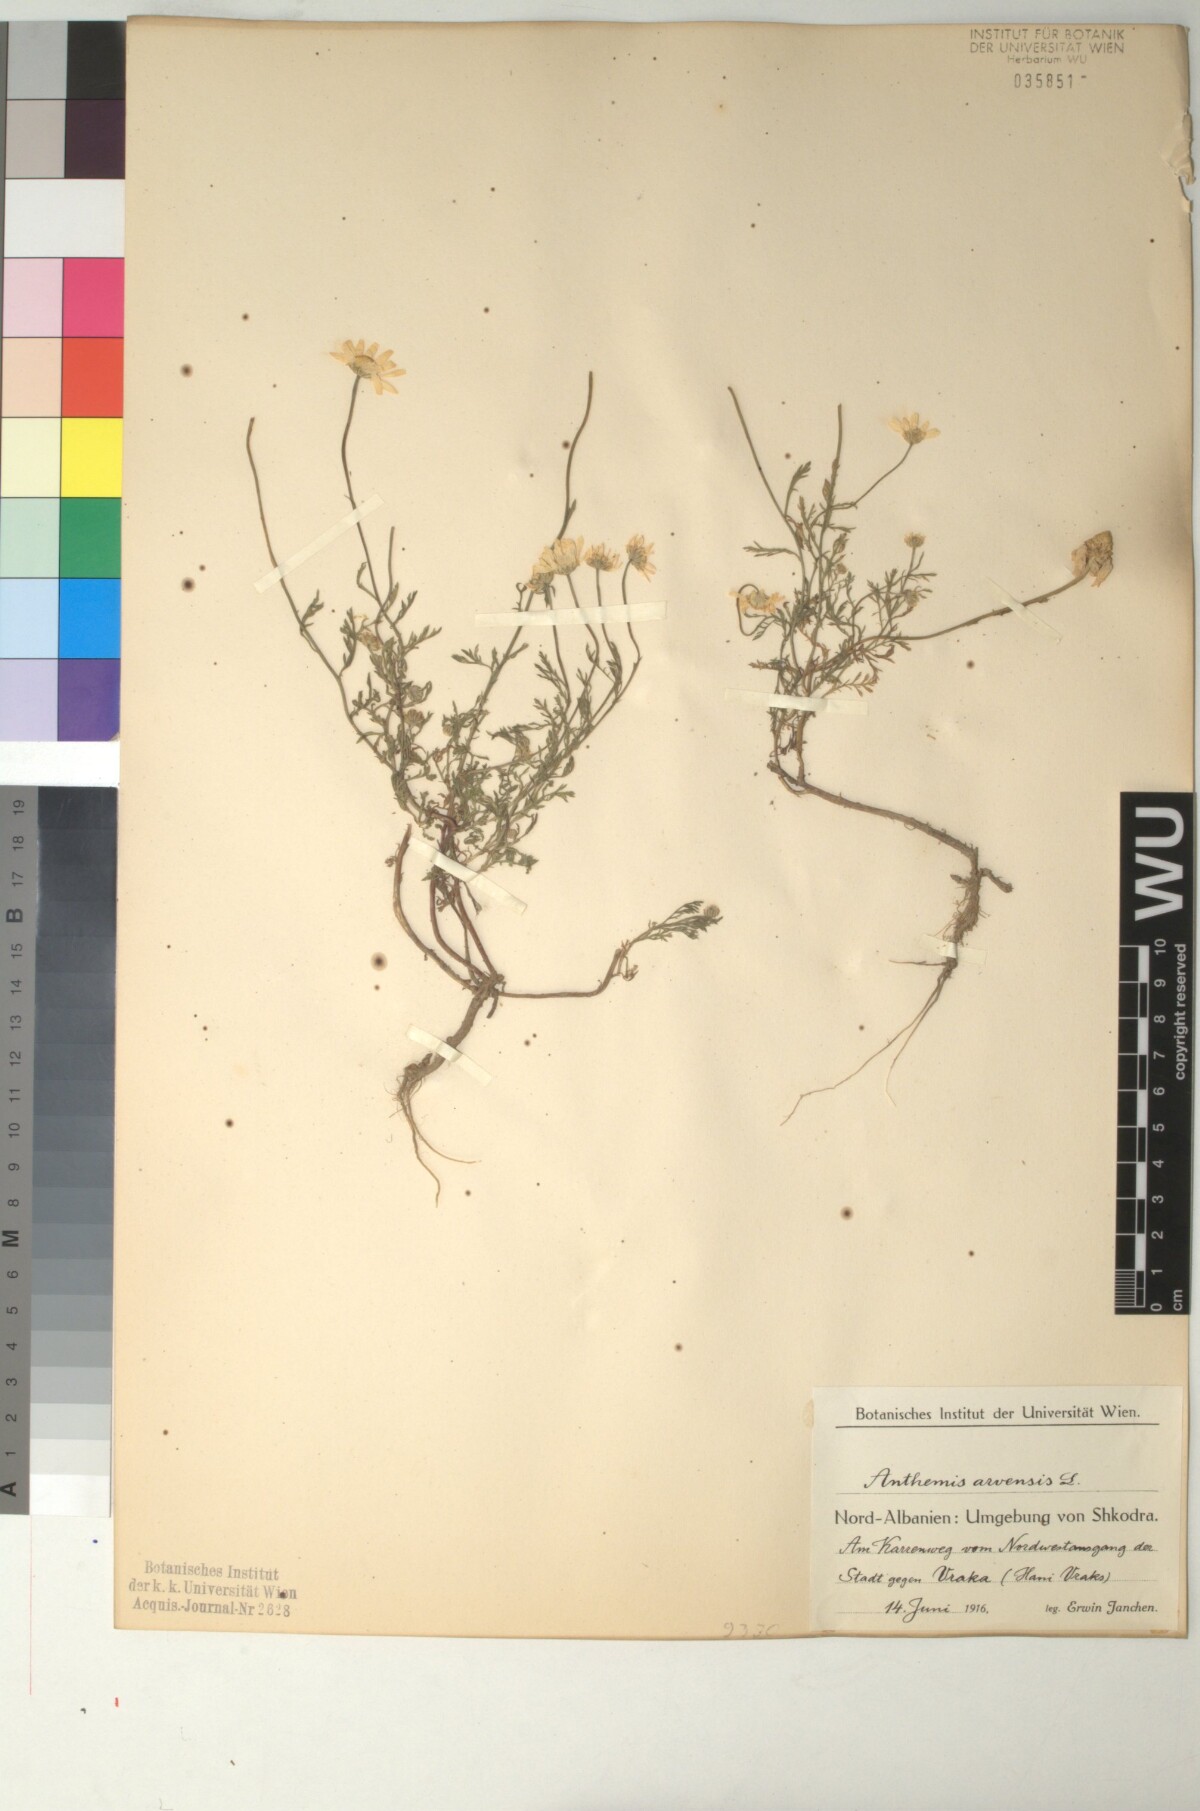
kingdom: Plantae
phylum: Tracheophyta
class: Magnoliopsida
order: Asterales
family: Asteraceae
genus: Anthemis
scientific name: Anthemis arvensis
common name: Corn chamomile
